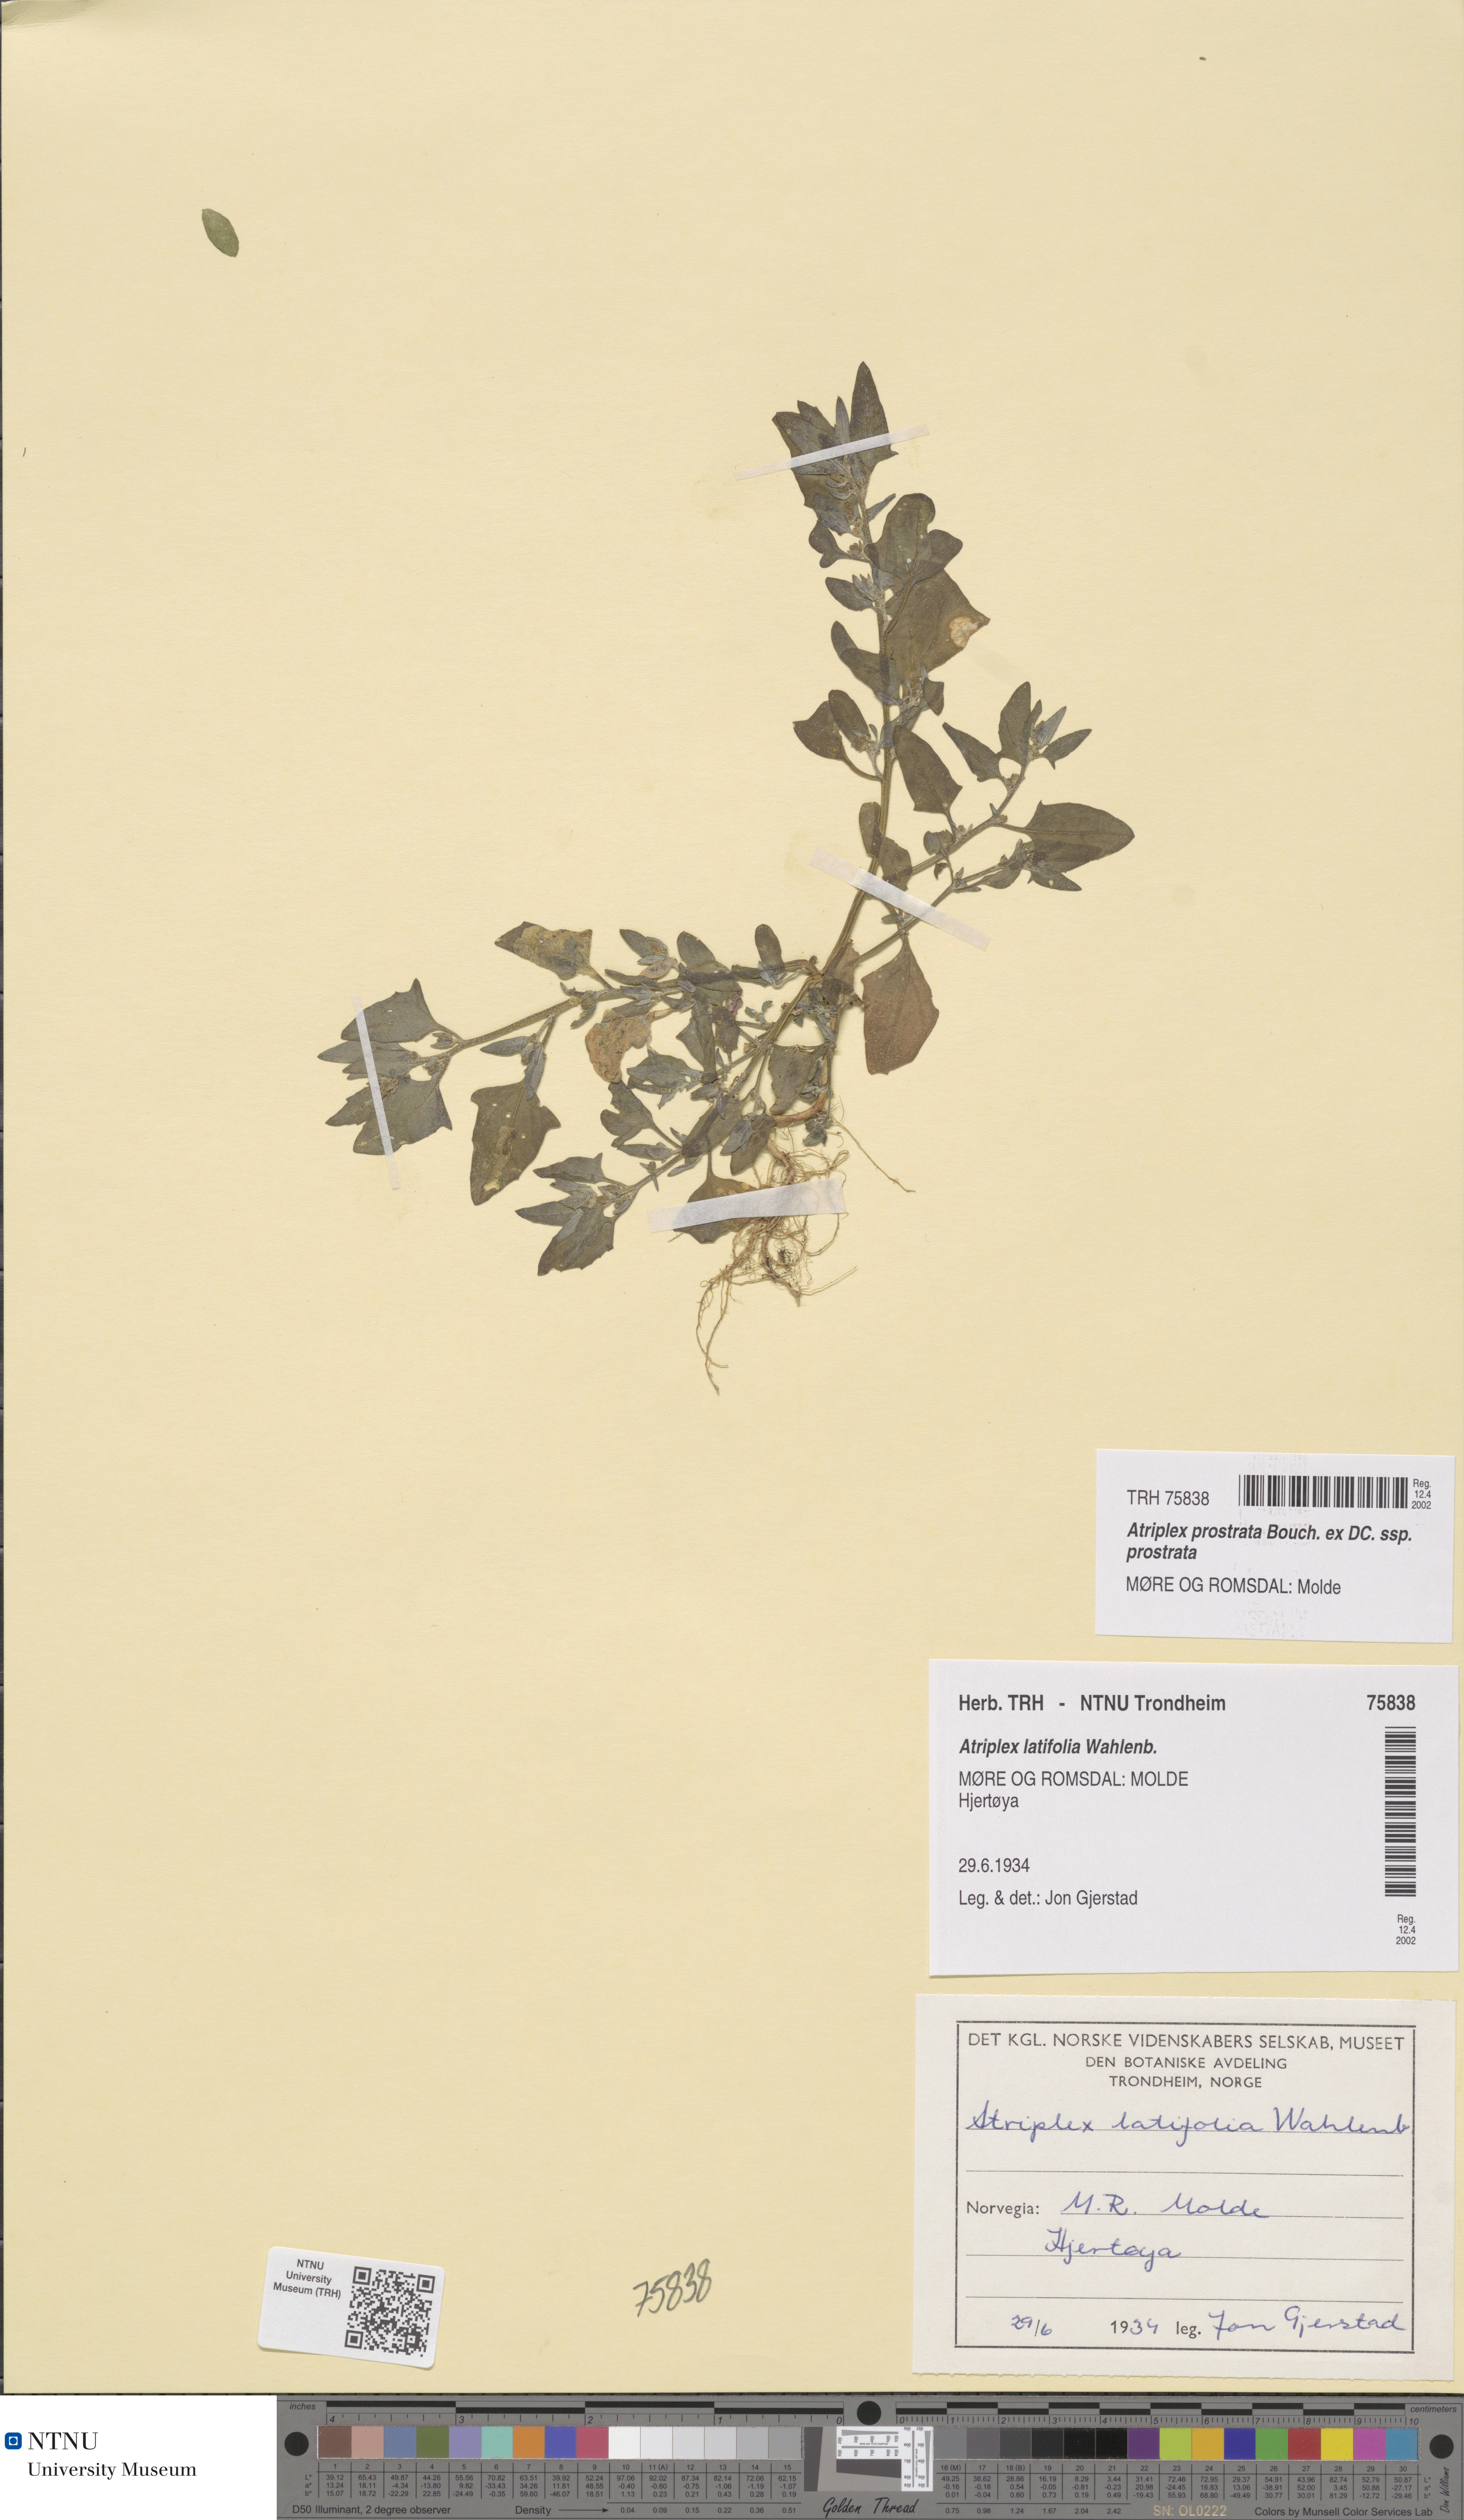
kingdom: Plantae
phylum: Tracheophyta
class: Magnoliopsida
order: Caryophyllales
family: Amaranthaceae
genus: Atriplex
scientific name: Atriplex prostrata
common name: Spear-leaved orache
